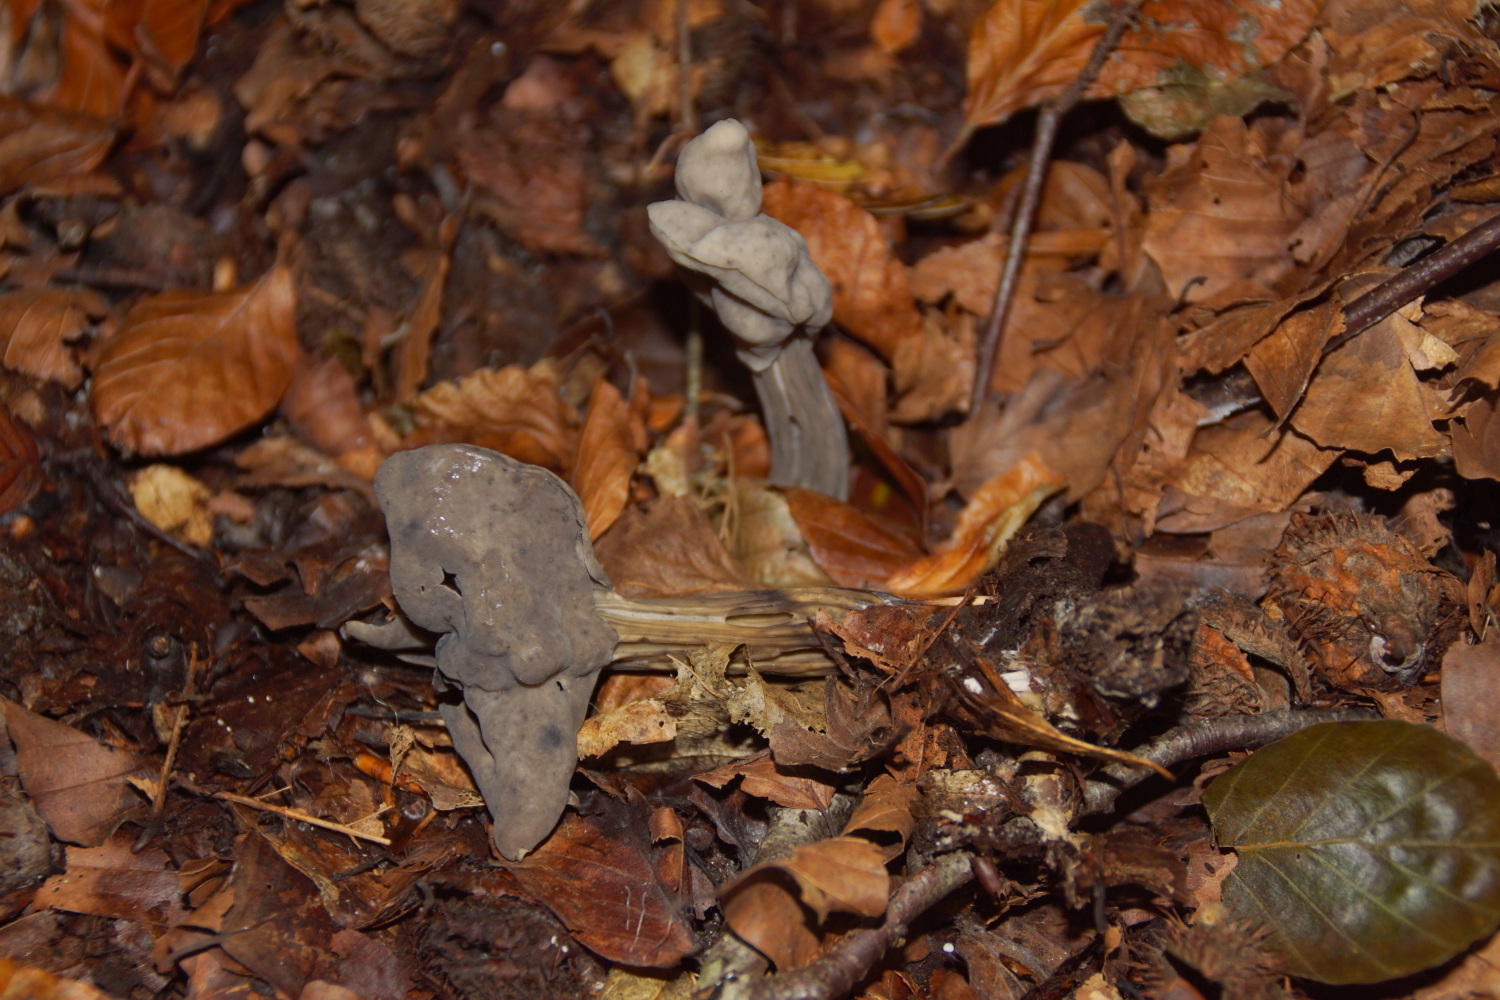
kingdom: Fungi
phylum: Ascomycota
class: Pezizomycetes
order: Pezizales
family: Helvellaceae
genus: Helvella
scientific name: Helvella lacunosa
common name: grubet foldhat
